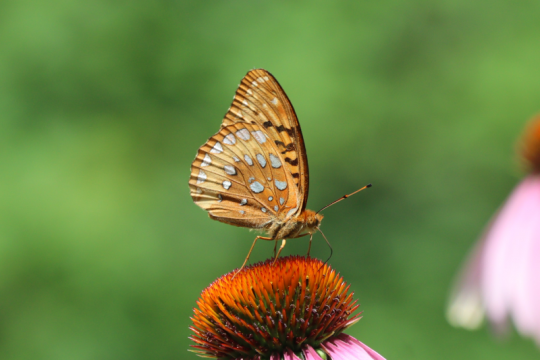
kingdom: Animalia
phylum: Arthropoda
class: Insecta
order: Lepidoptera
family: Nymphalidae
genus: Speyeria
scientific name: Speyeria cybele
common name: Great Spangled Fritillary
